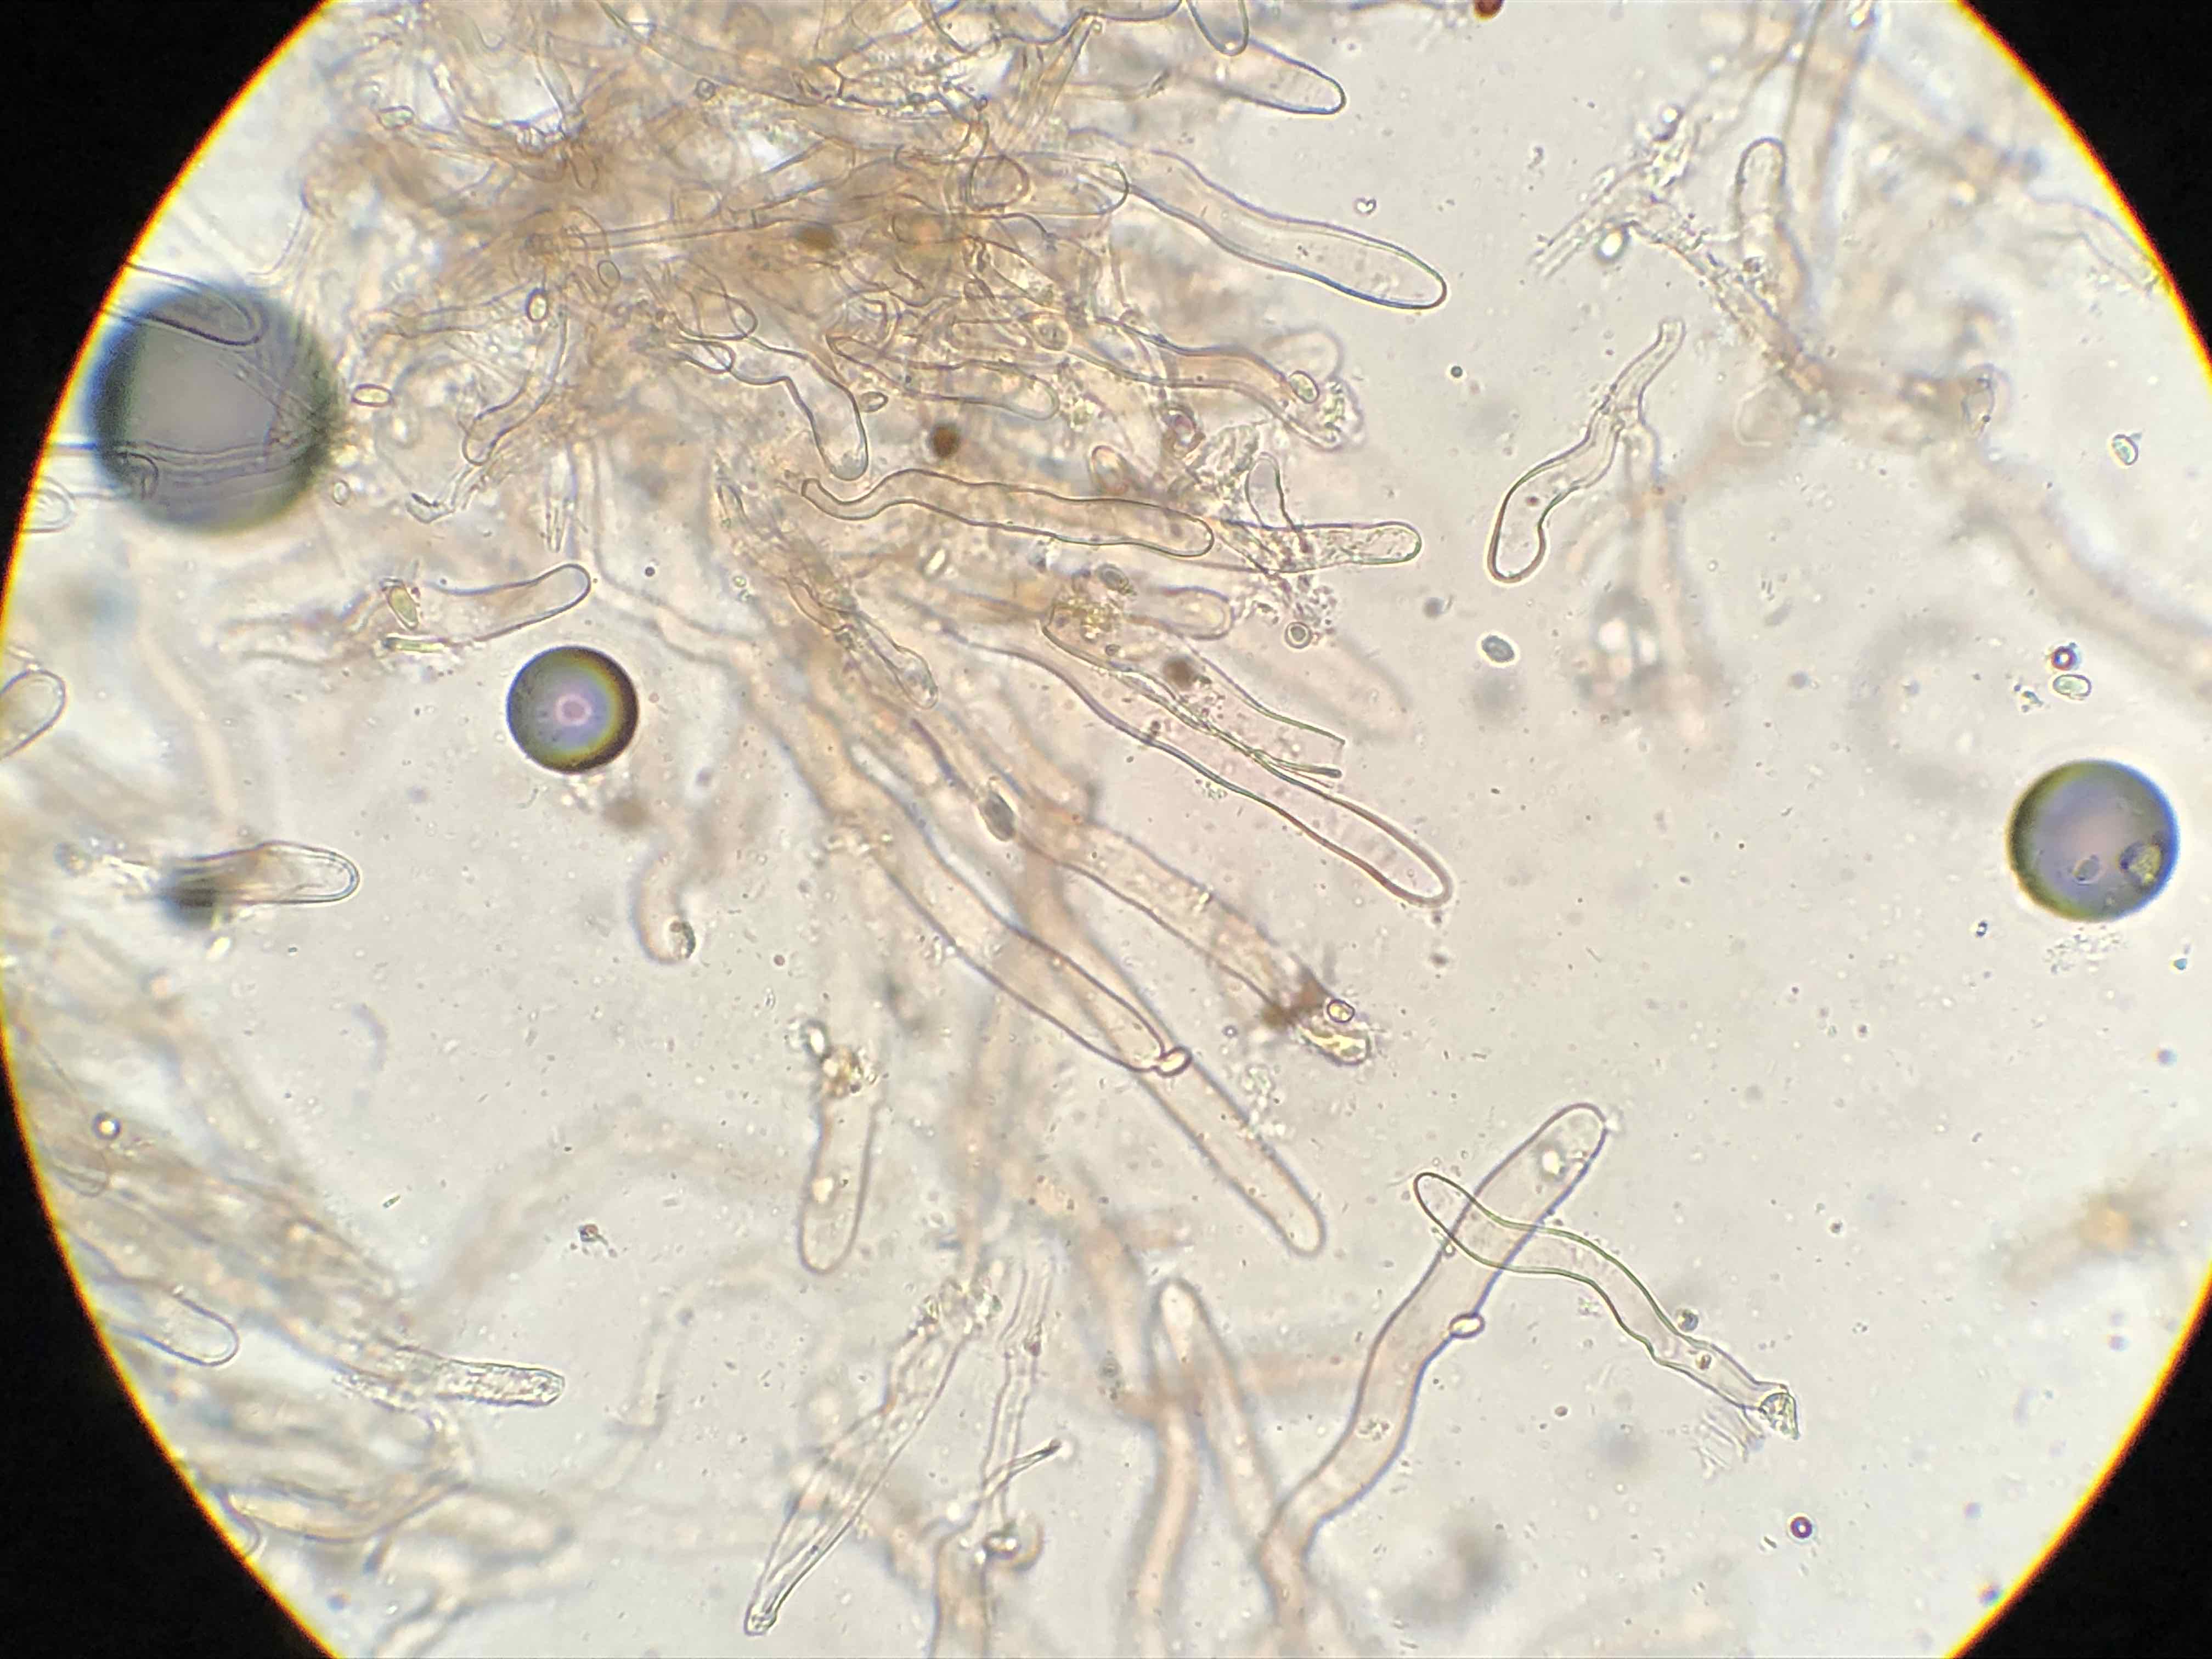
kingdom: Fungi
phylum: Basidiomycota
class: Agaricomycetes
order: Agaricales
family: Agaricaceae
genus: Lepiota
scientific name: Lepiota pseudolilacea
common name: gråbrun parasolhat
